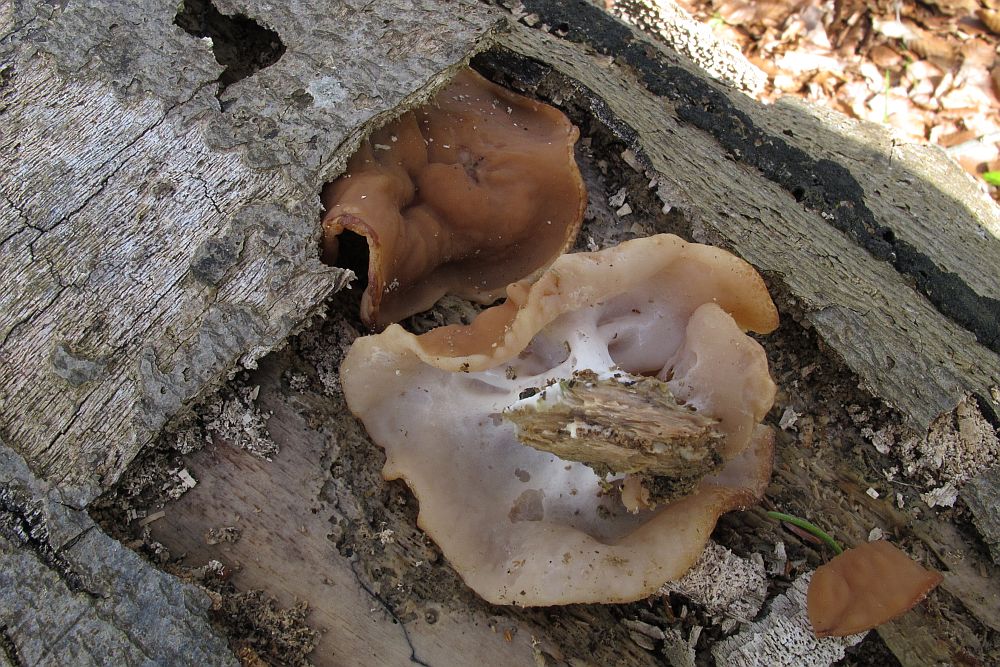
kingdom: Fungi
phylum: Ascomycota
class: Pezizomycetes
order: Pezizales
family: Discinaceae
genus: Gyromitra
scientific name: Gyromitra parma
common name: flad stenmorkel
